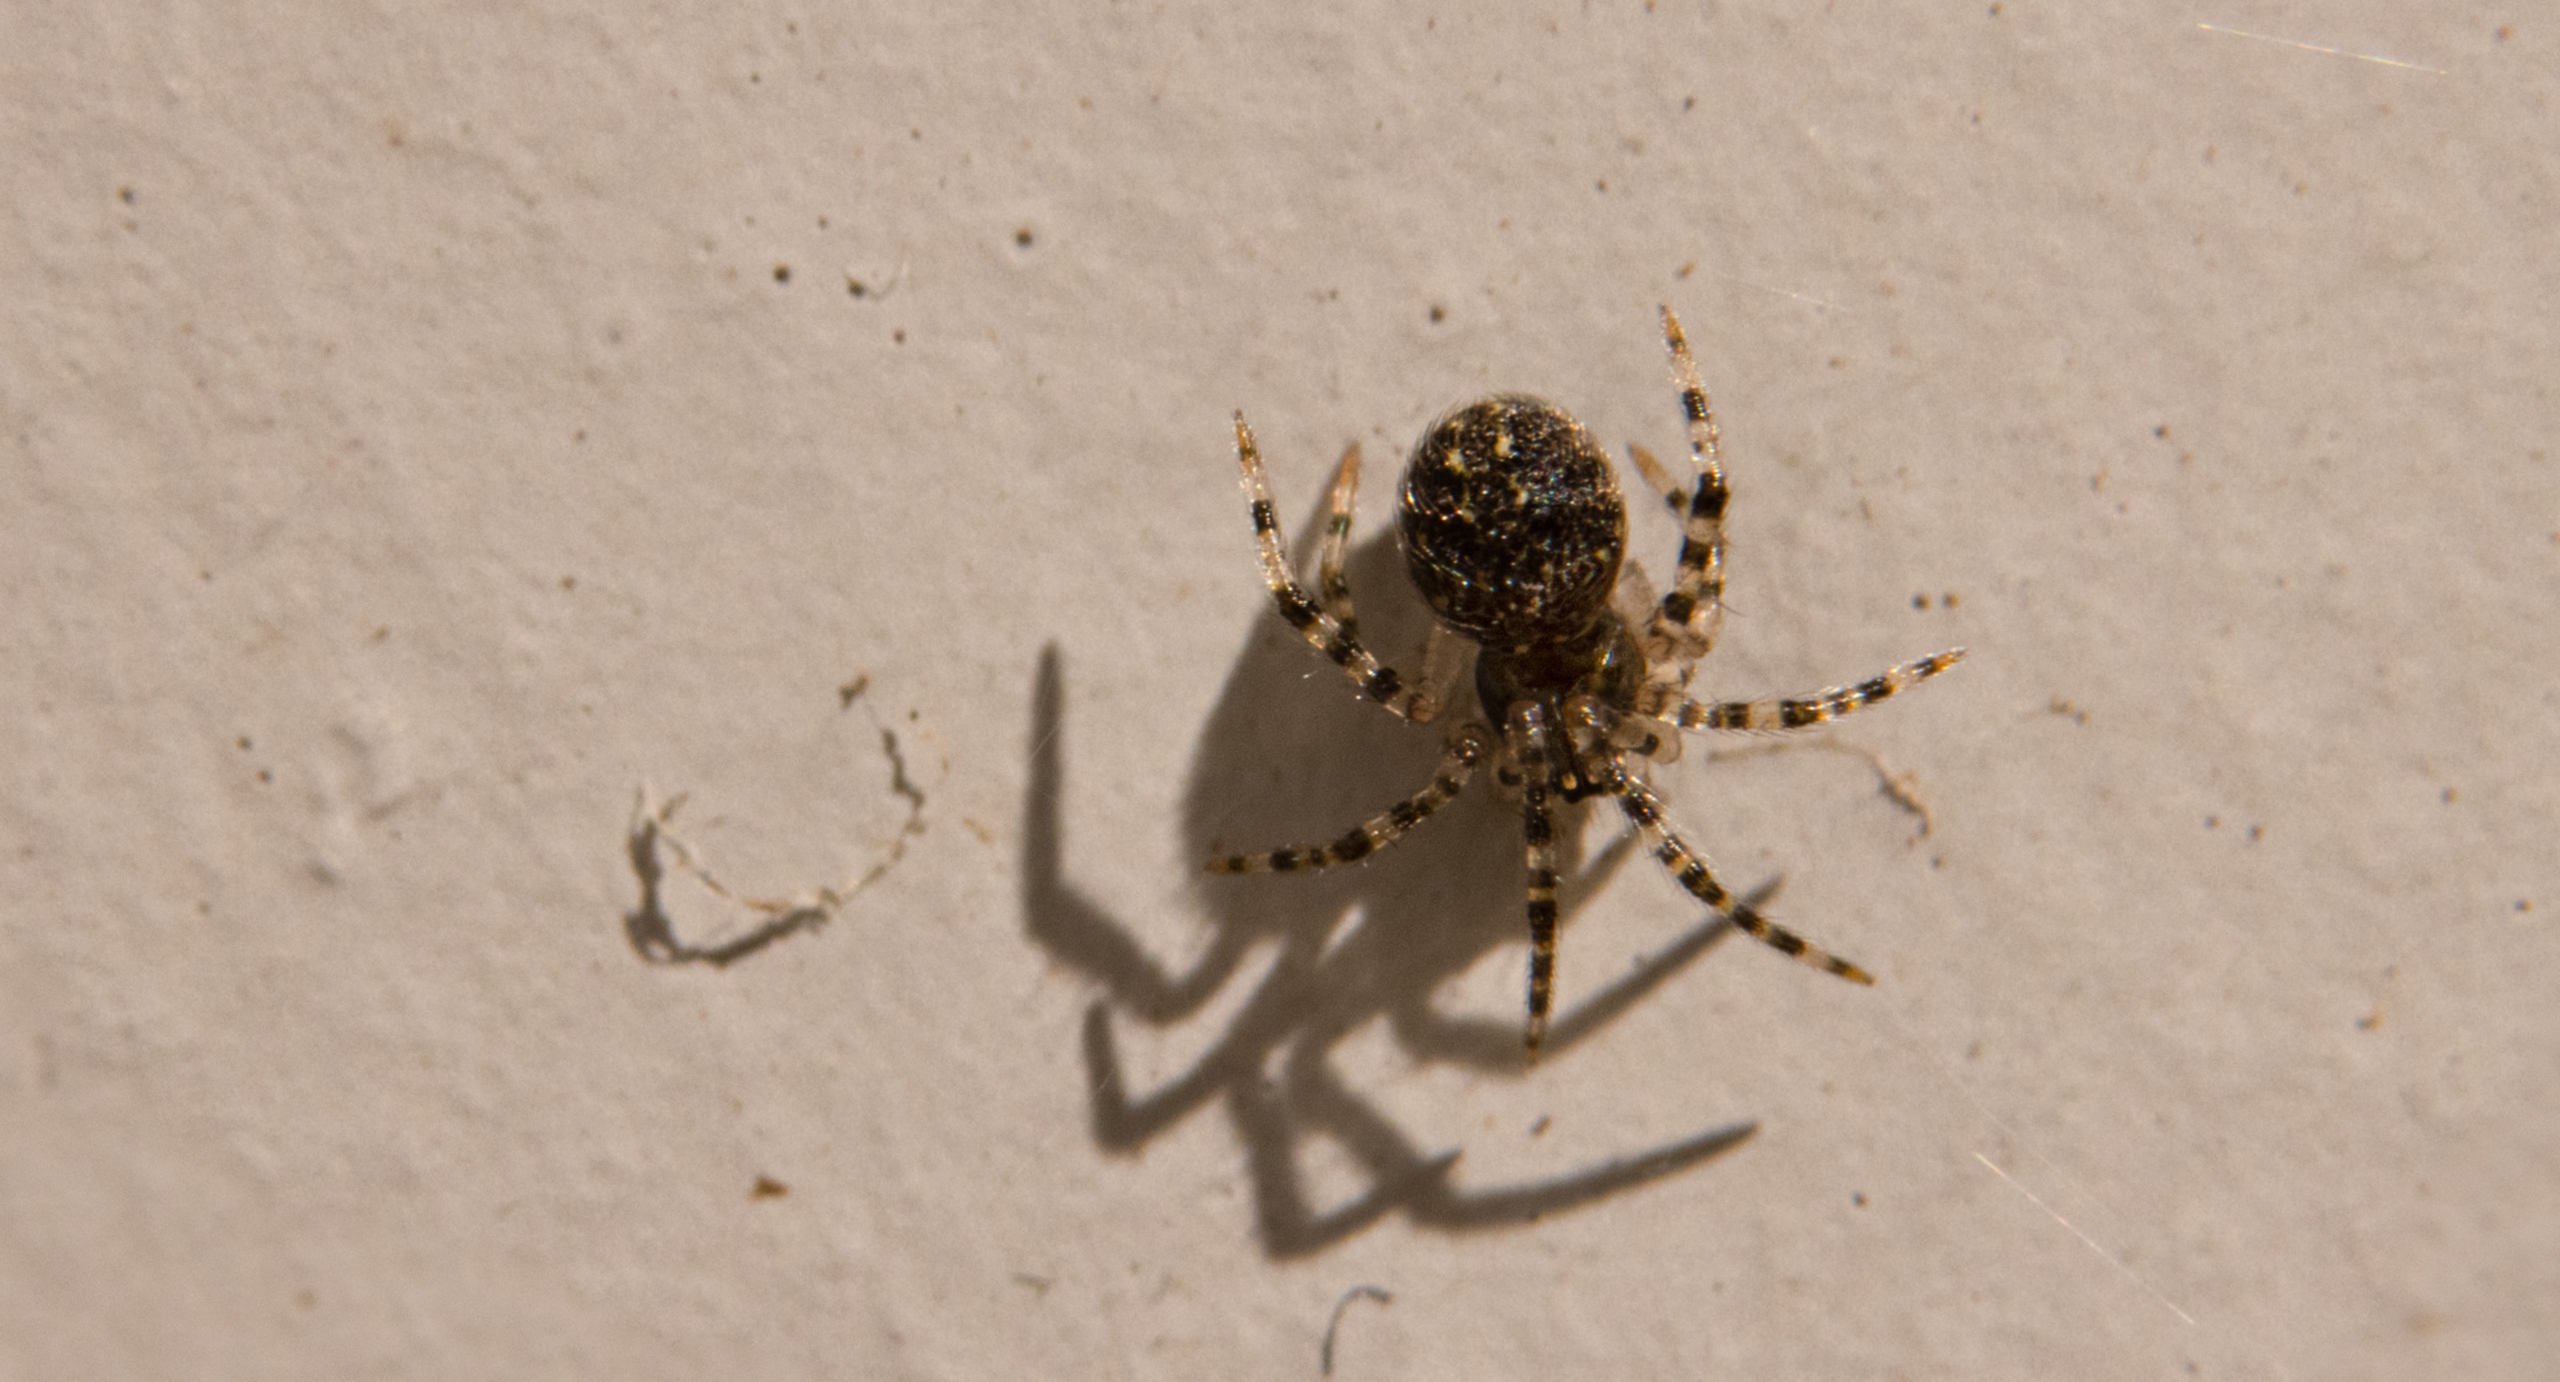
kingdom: Animalia
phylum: Arthropoda
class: Arachnida
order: Araneae
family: Theridiidae
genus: Theridion
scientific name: Theridion
